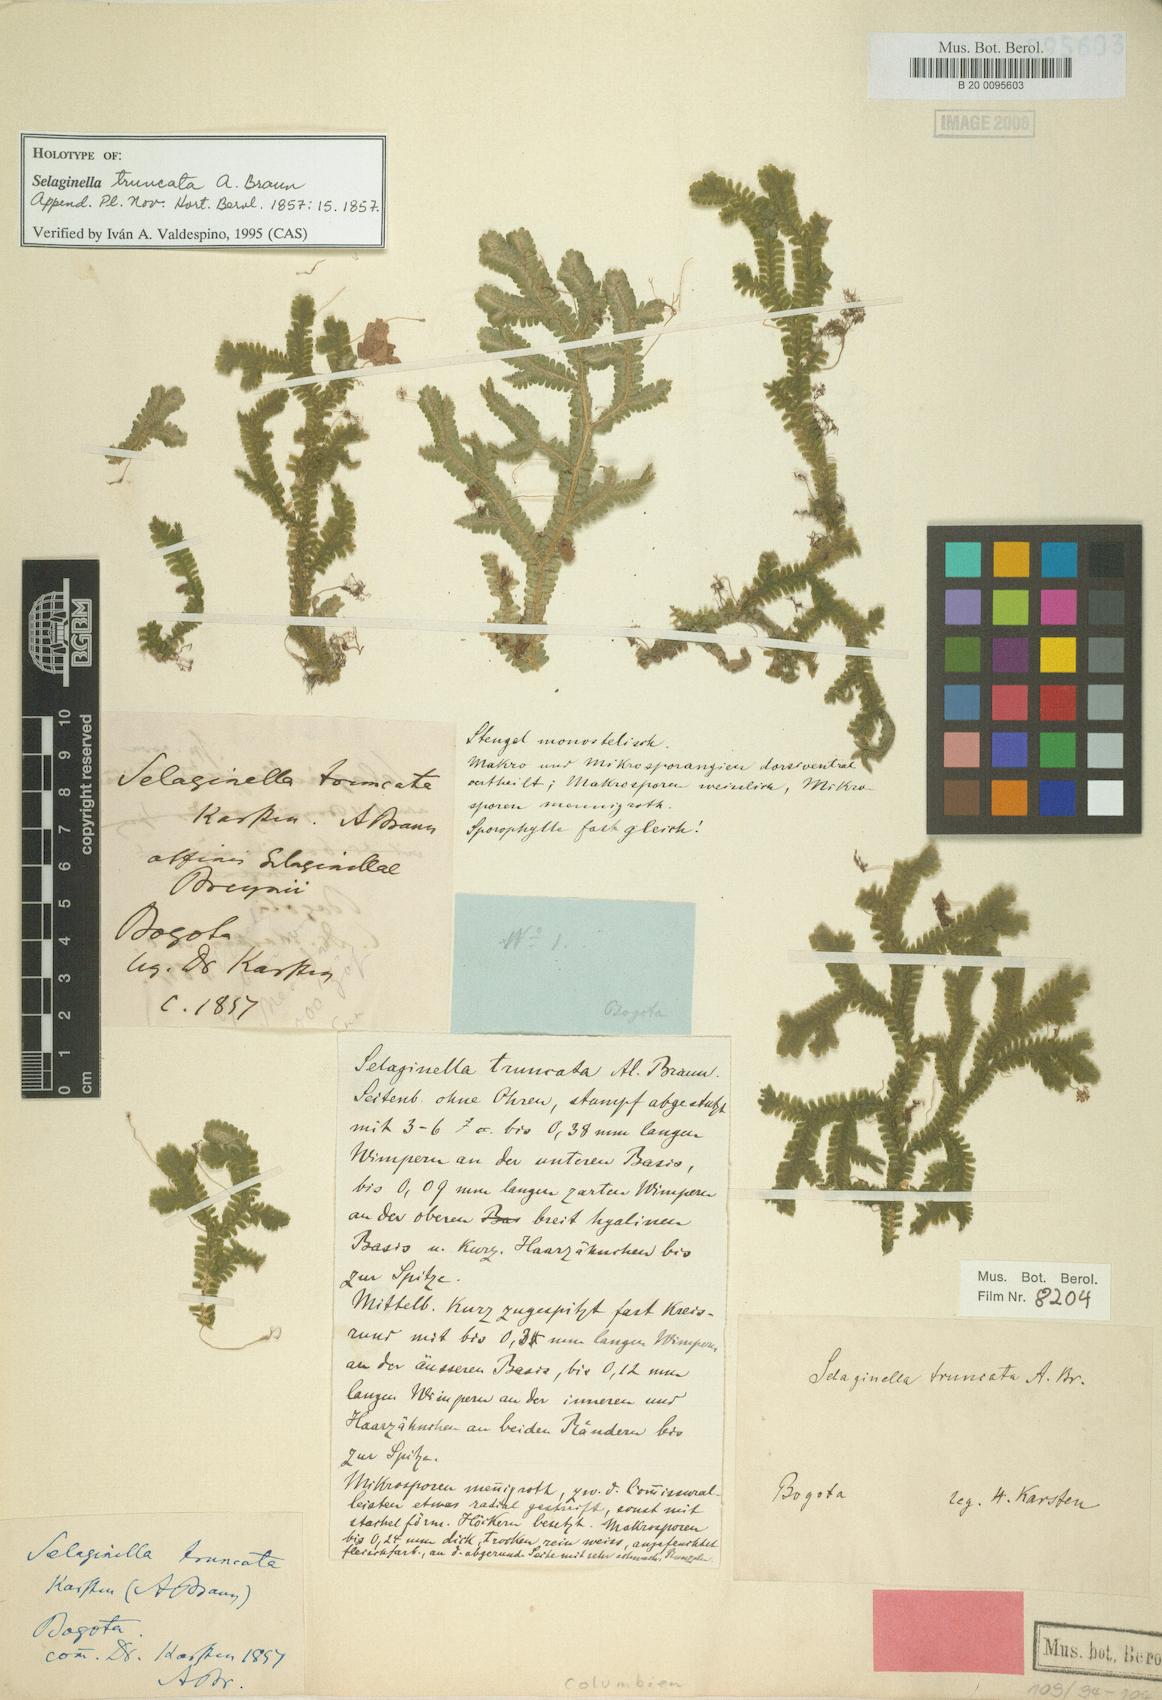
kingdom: Plantae
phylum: Tracheophyta
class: Lycopodiopsida
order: Selaginellales
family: Selaginellaceae
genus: Selaginella
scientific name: Selaginella truncata
